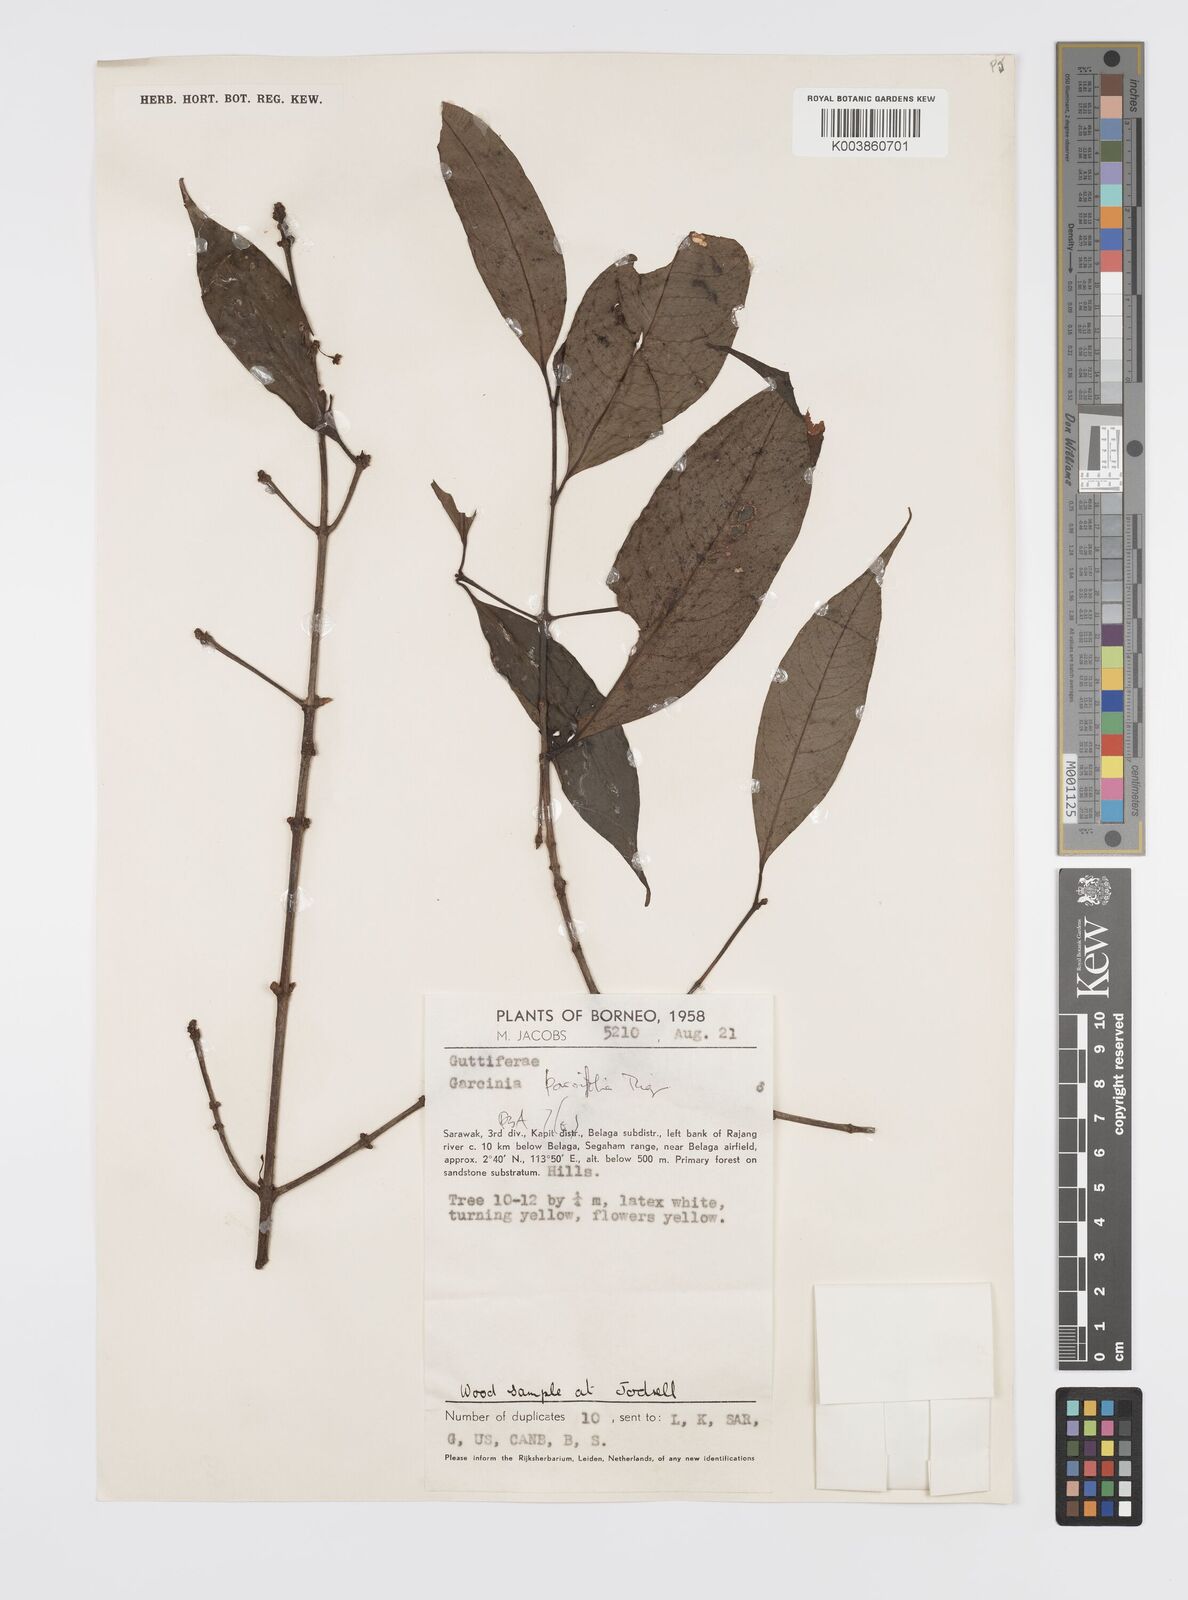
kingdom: Plantae
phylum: Tracheophyta
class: Magnoliopsida
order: Malpighiales
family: Clusiaceae
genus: Garcinia
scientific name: Garcinia parvifolia
